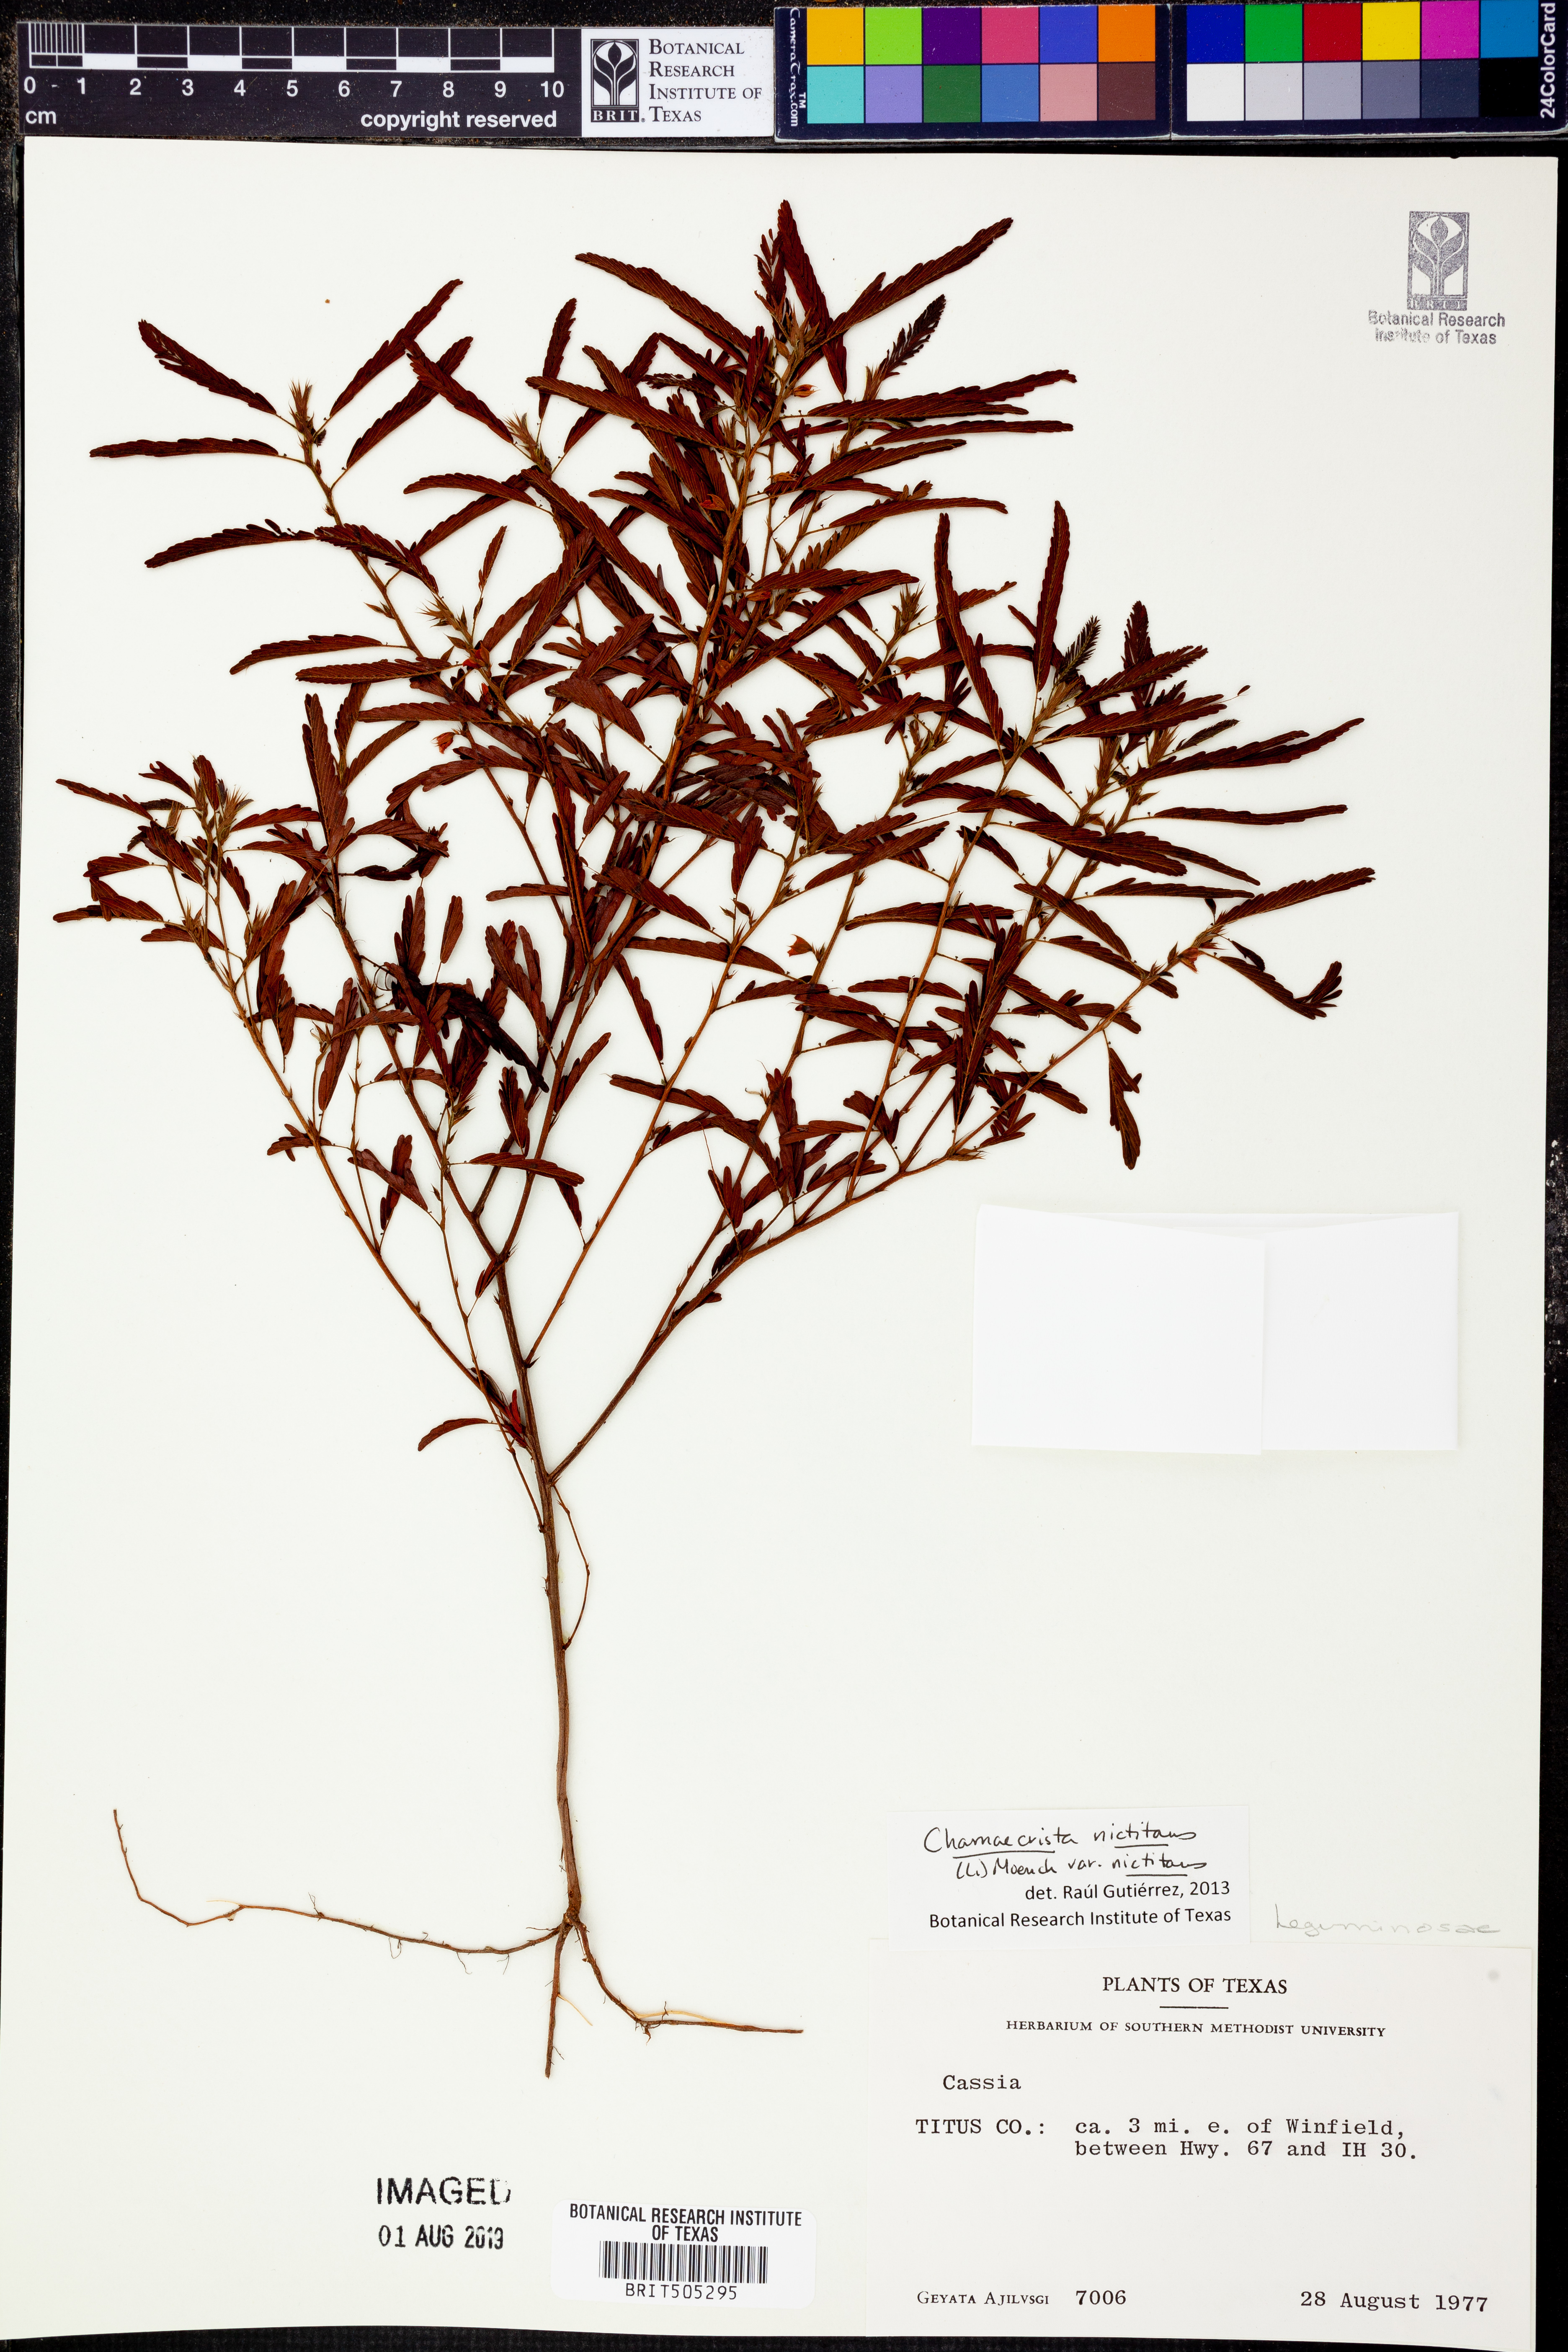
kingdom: Plantae
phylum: Tracheophyta
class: Magnoliopsida
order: Fabales
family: Fabaceae
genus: Chamaecrista
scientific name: Chamaecrista nictitans
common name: Sensitive cassia
